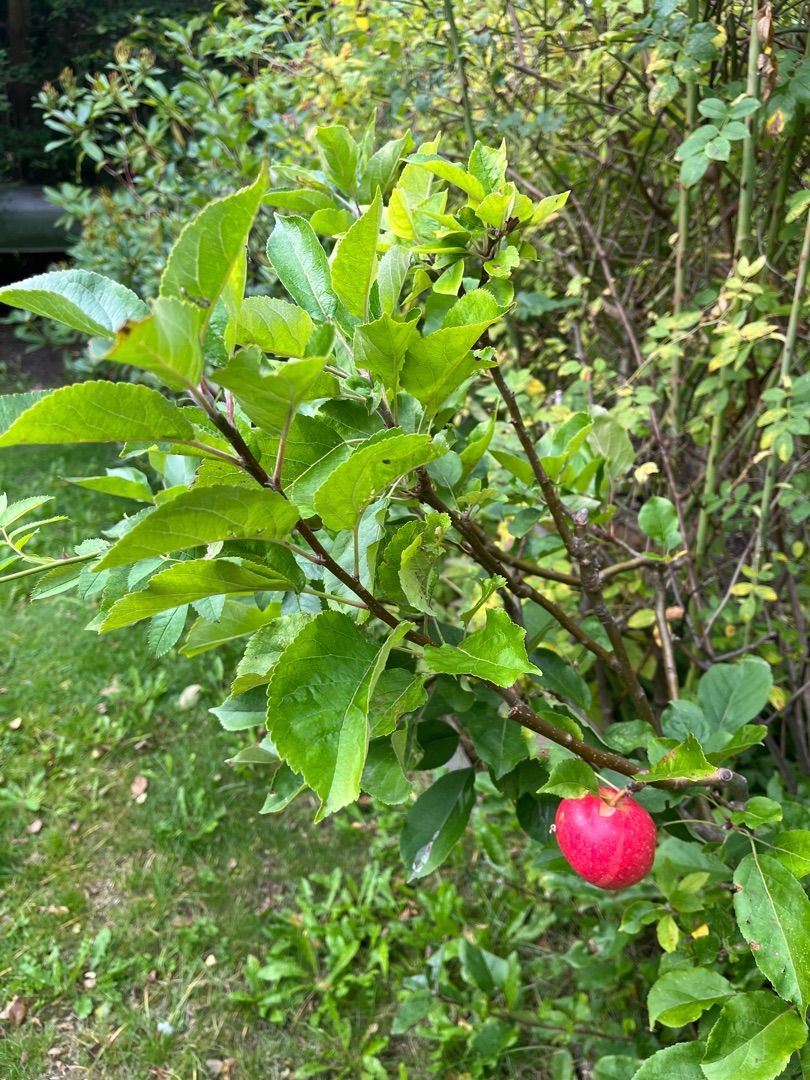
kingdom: Plantae
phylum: Tracheophyta
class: Magnoliopsida
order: Rosales
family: Rosaceae
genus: Malus
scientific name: Malus domestica
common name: Sød-æble
